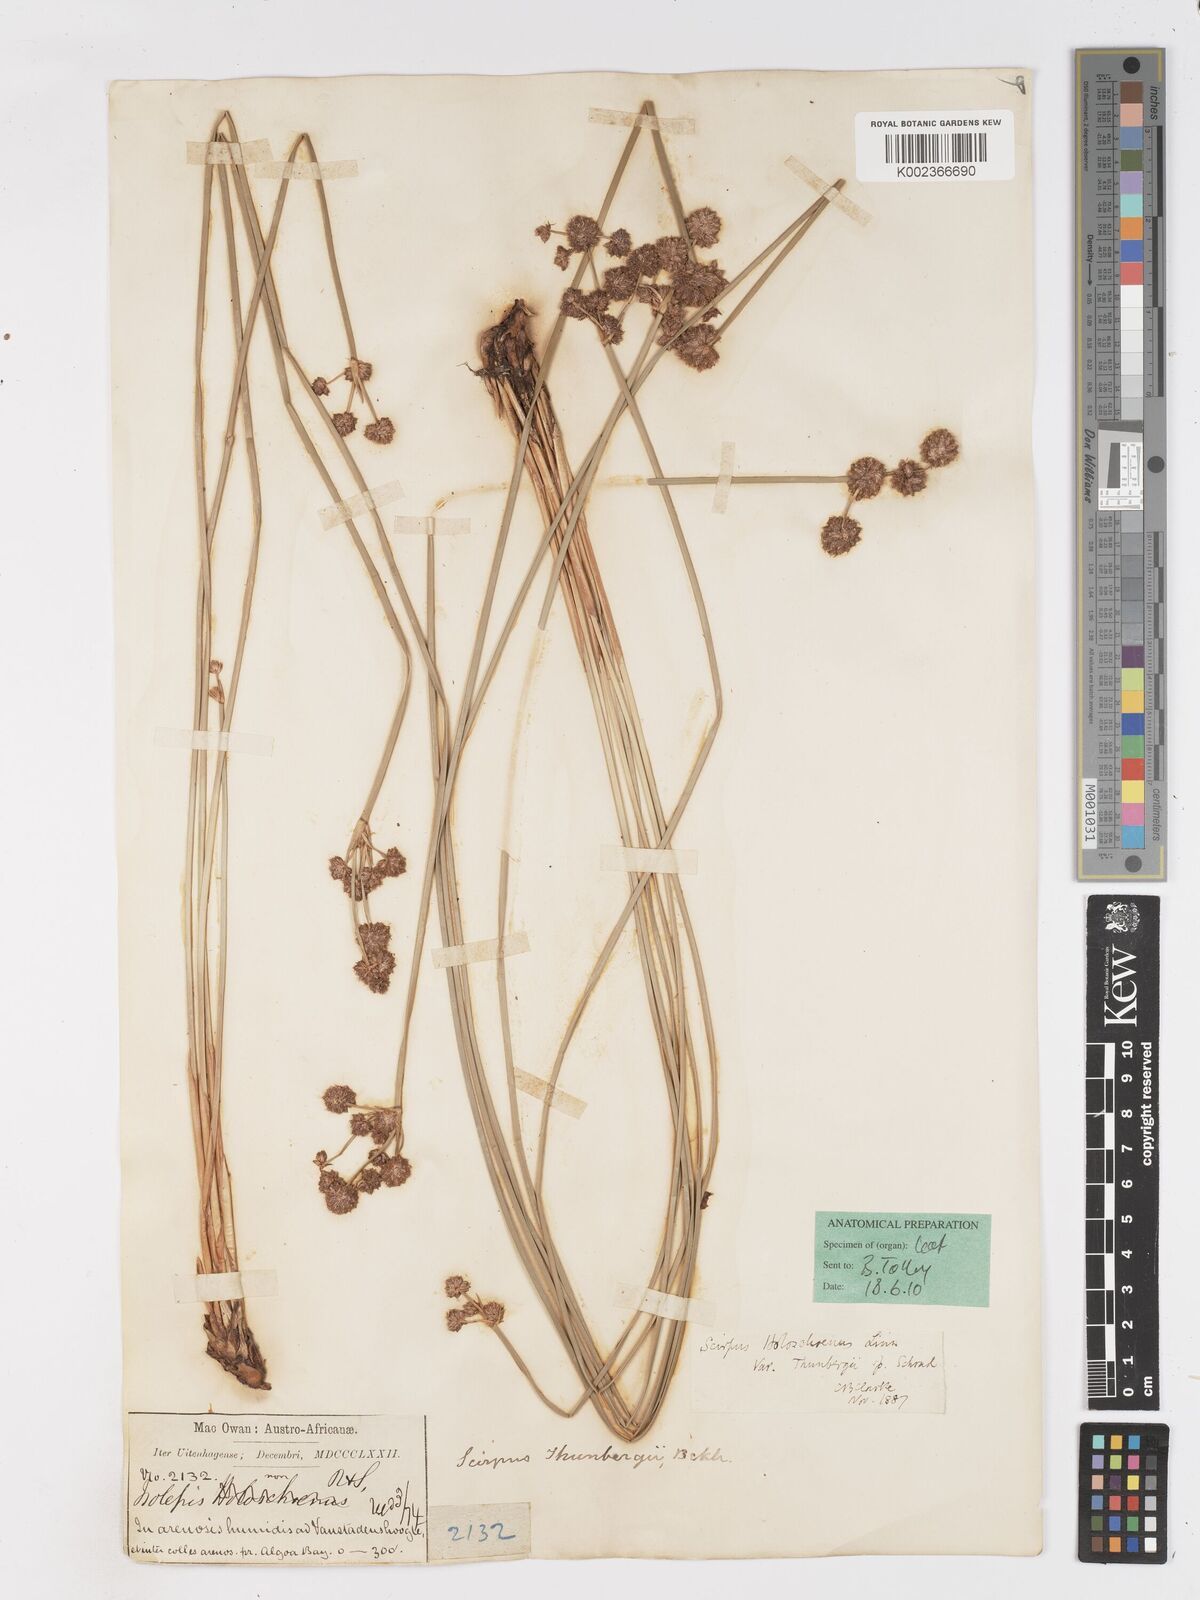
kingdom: Plantae
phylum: Tracheophyta
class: Liliopsida
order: Poales
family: Cyperaceae
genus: Scirpoides
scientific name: Scirpoides holoschoenus
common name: Round-headed club-rush
